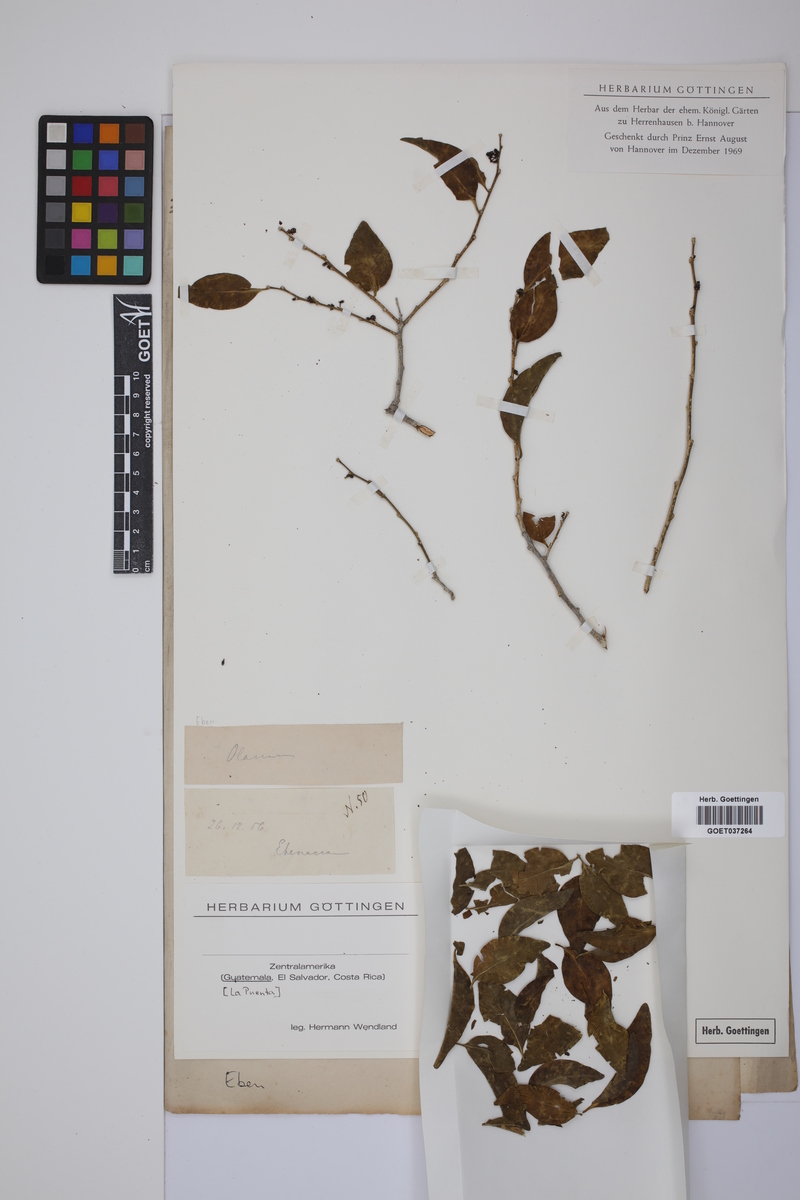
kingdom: Plantae
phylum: Tracheophyta
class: Magnoliopsida
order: Ericales
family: Ebenaceae
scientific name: Ebenaceae
